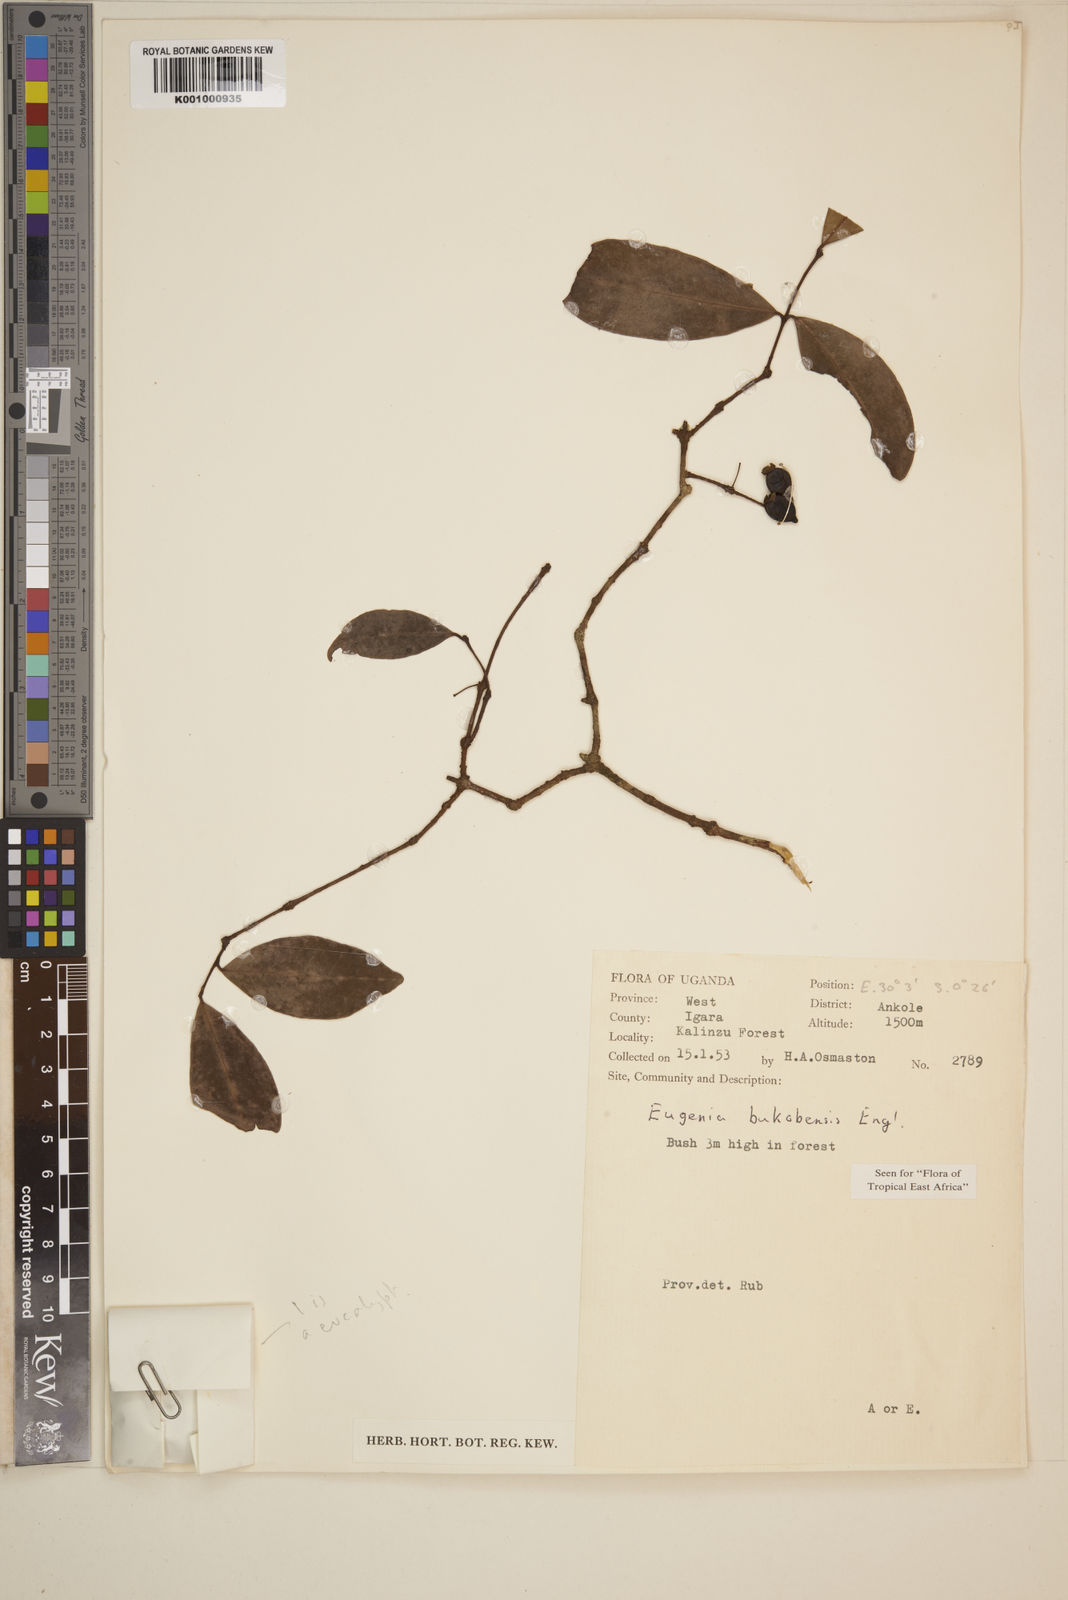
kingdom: Plantae
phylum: Tracheophyta
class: Magnoliopsida
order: Myrtales
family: Myrtaceae
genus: Eugenia
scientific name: Eugenia bukobensis
